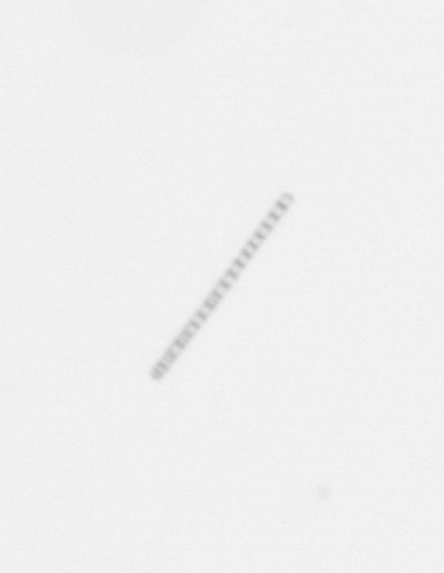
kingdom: Chromista
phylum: Ochrophyta
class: Bacillariophyceae
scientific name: Bacillariophyceae
